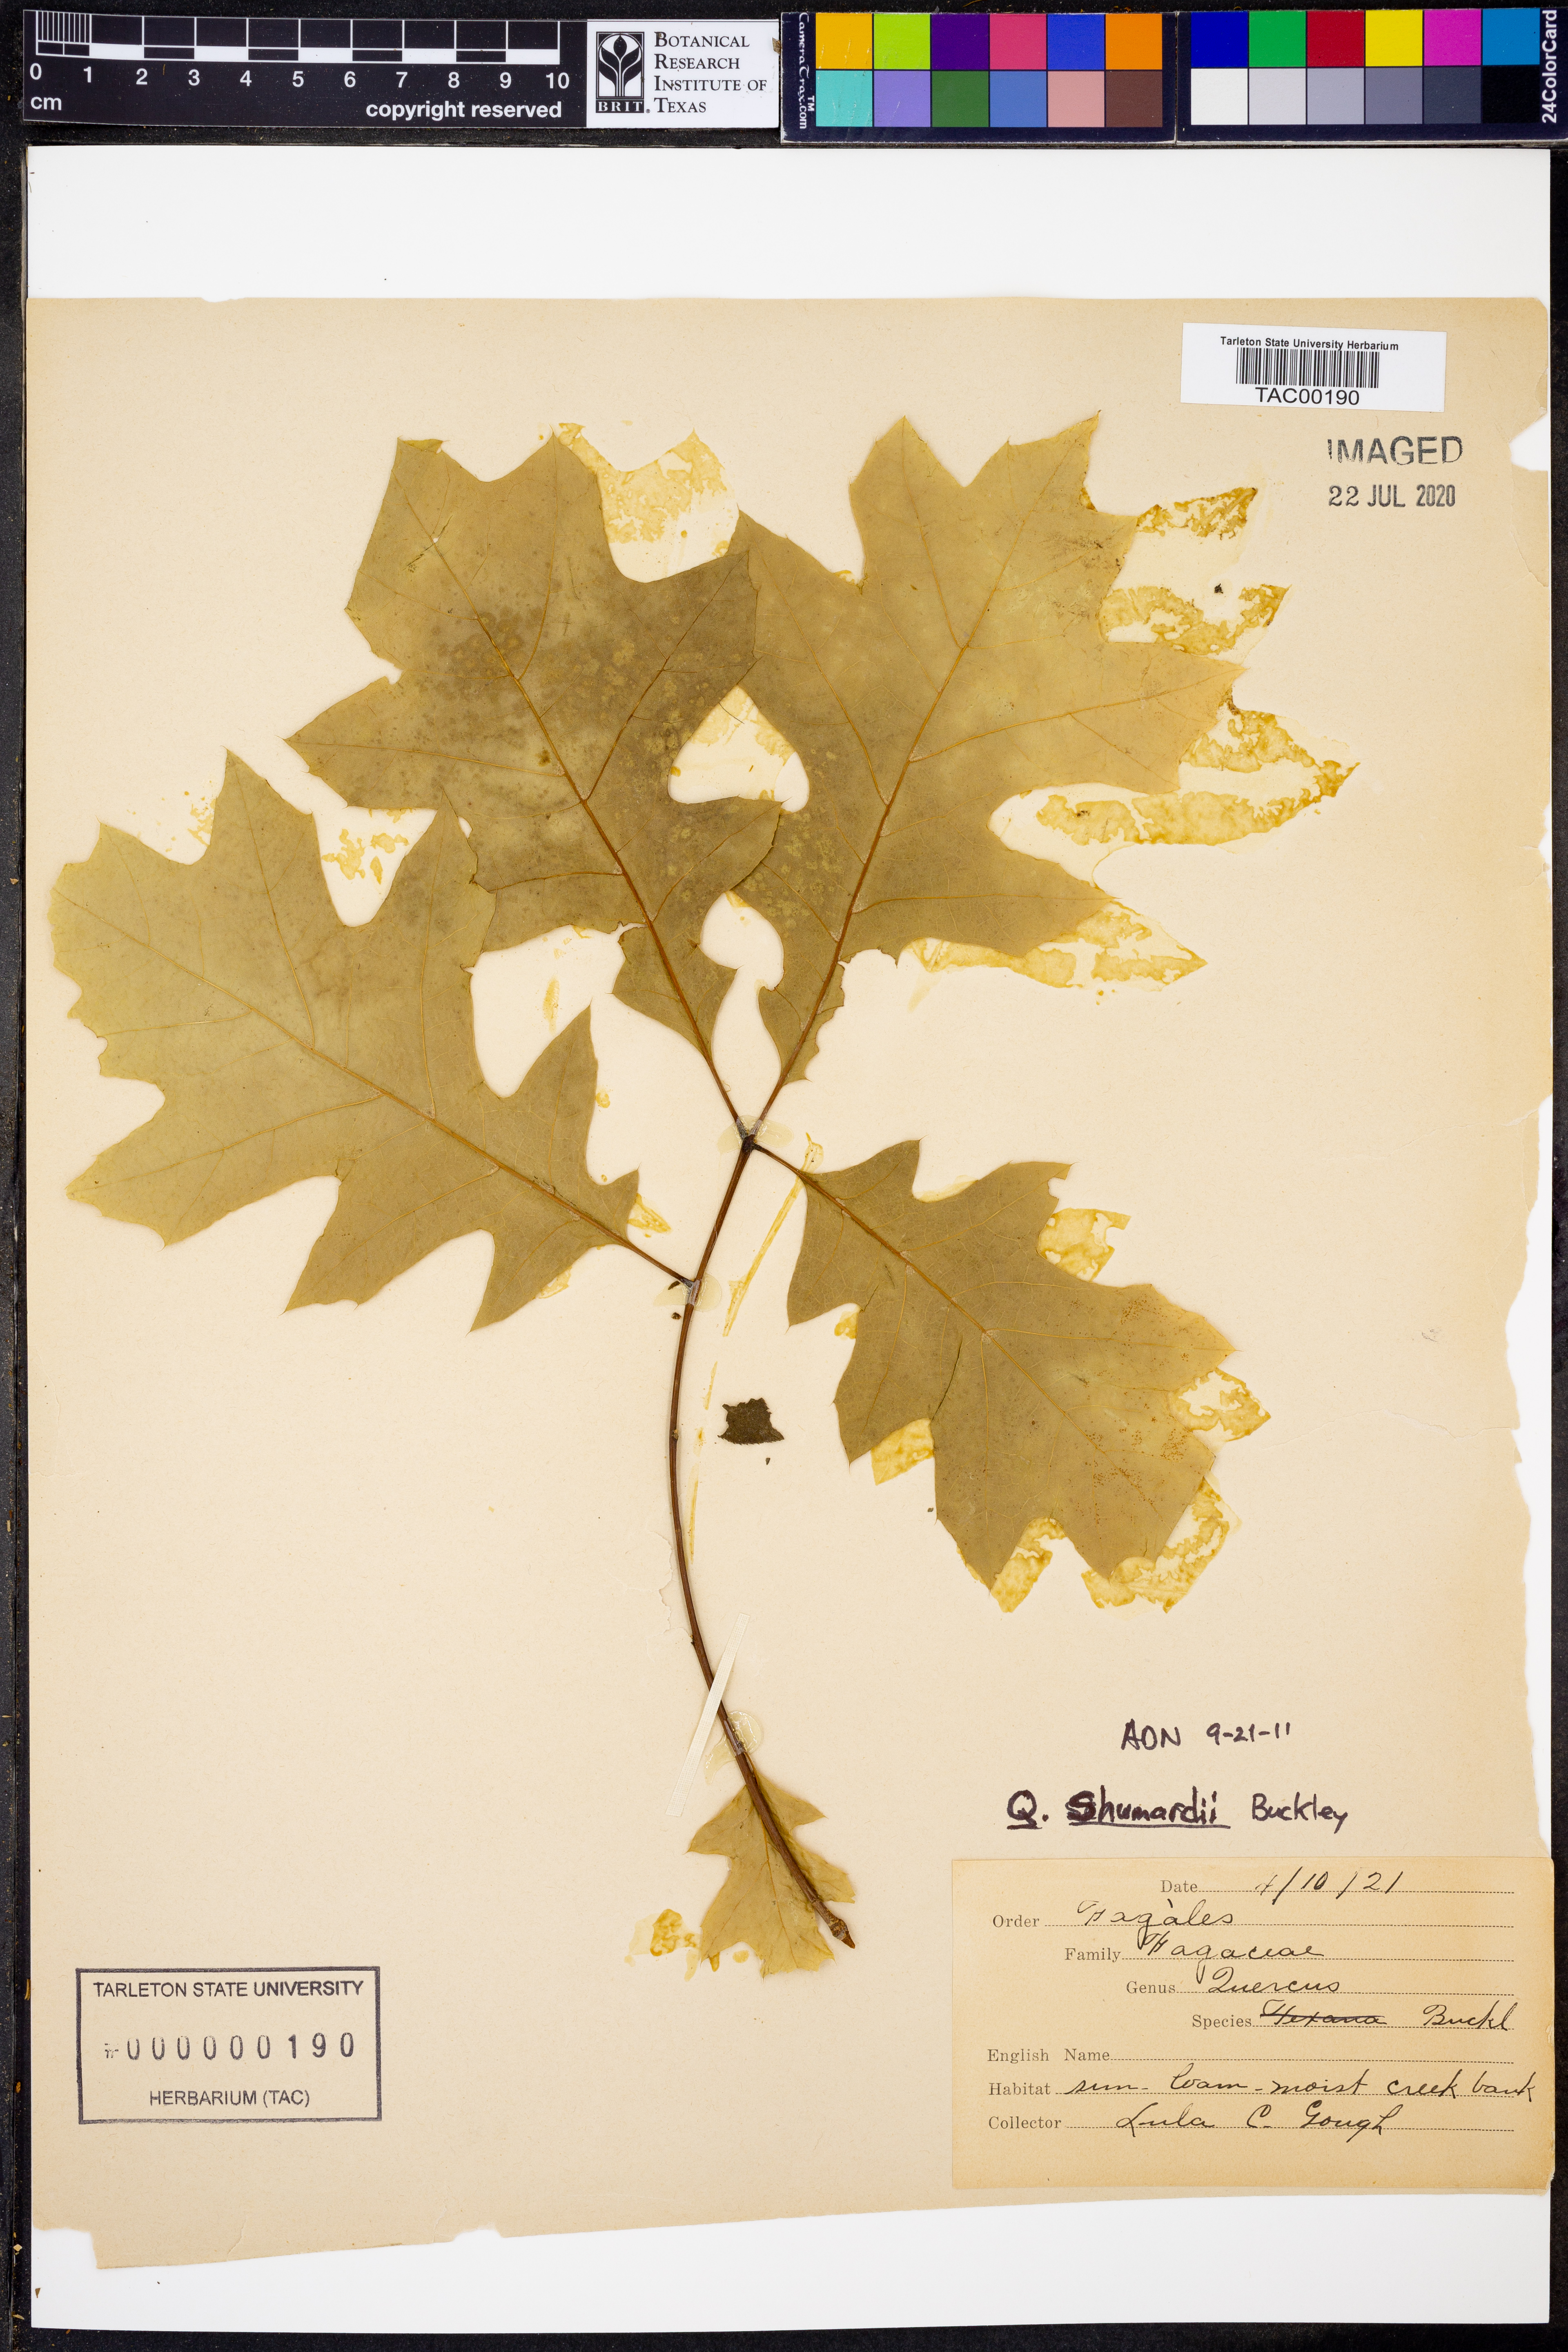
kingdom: Plantae
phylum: Tracheophyta
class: Magnoliopsida
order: Fagales
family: Fagaceae
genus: Quercus
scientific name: Quercus shumardii
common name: Shumard oak
